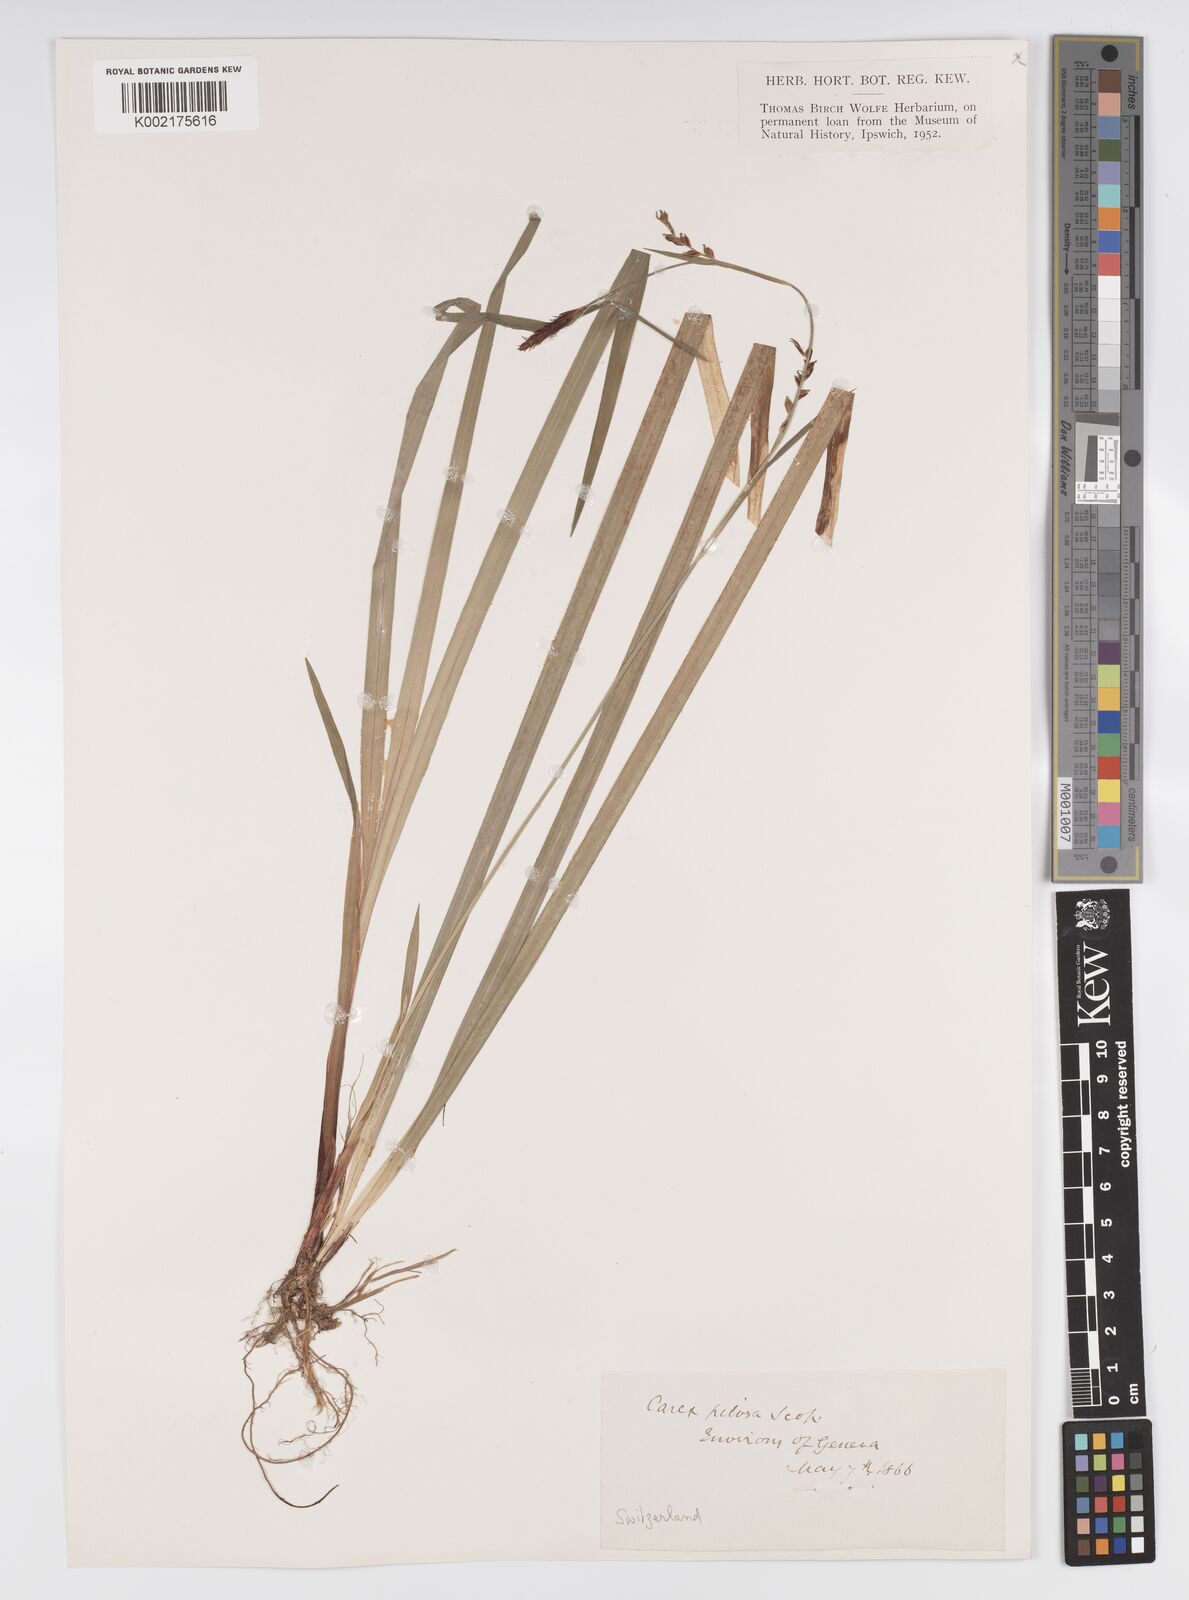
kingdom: Plantae
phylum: Tracheophyta
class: Liliopsida
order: Poales
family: Cyperaceae
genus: Carex
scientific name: Carex pilosa
